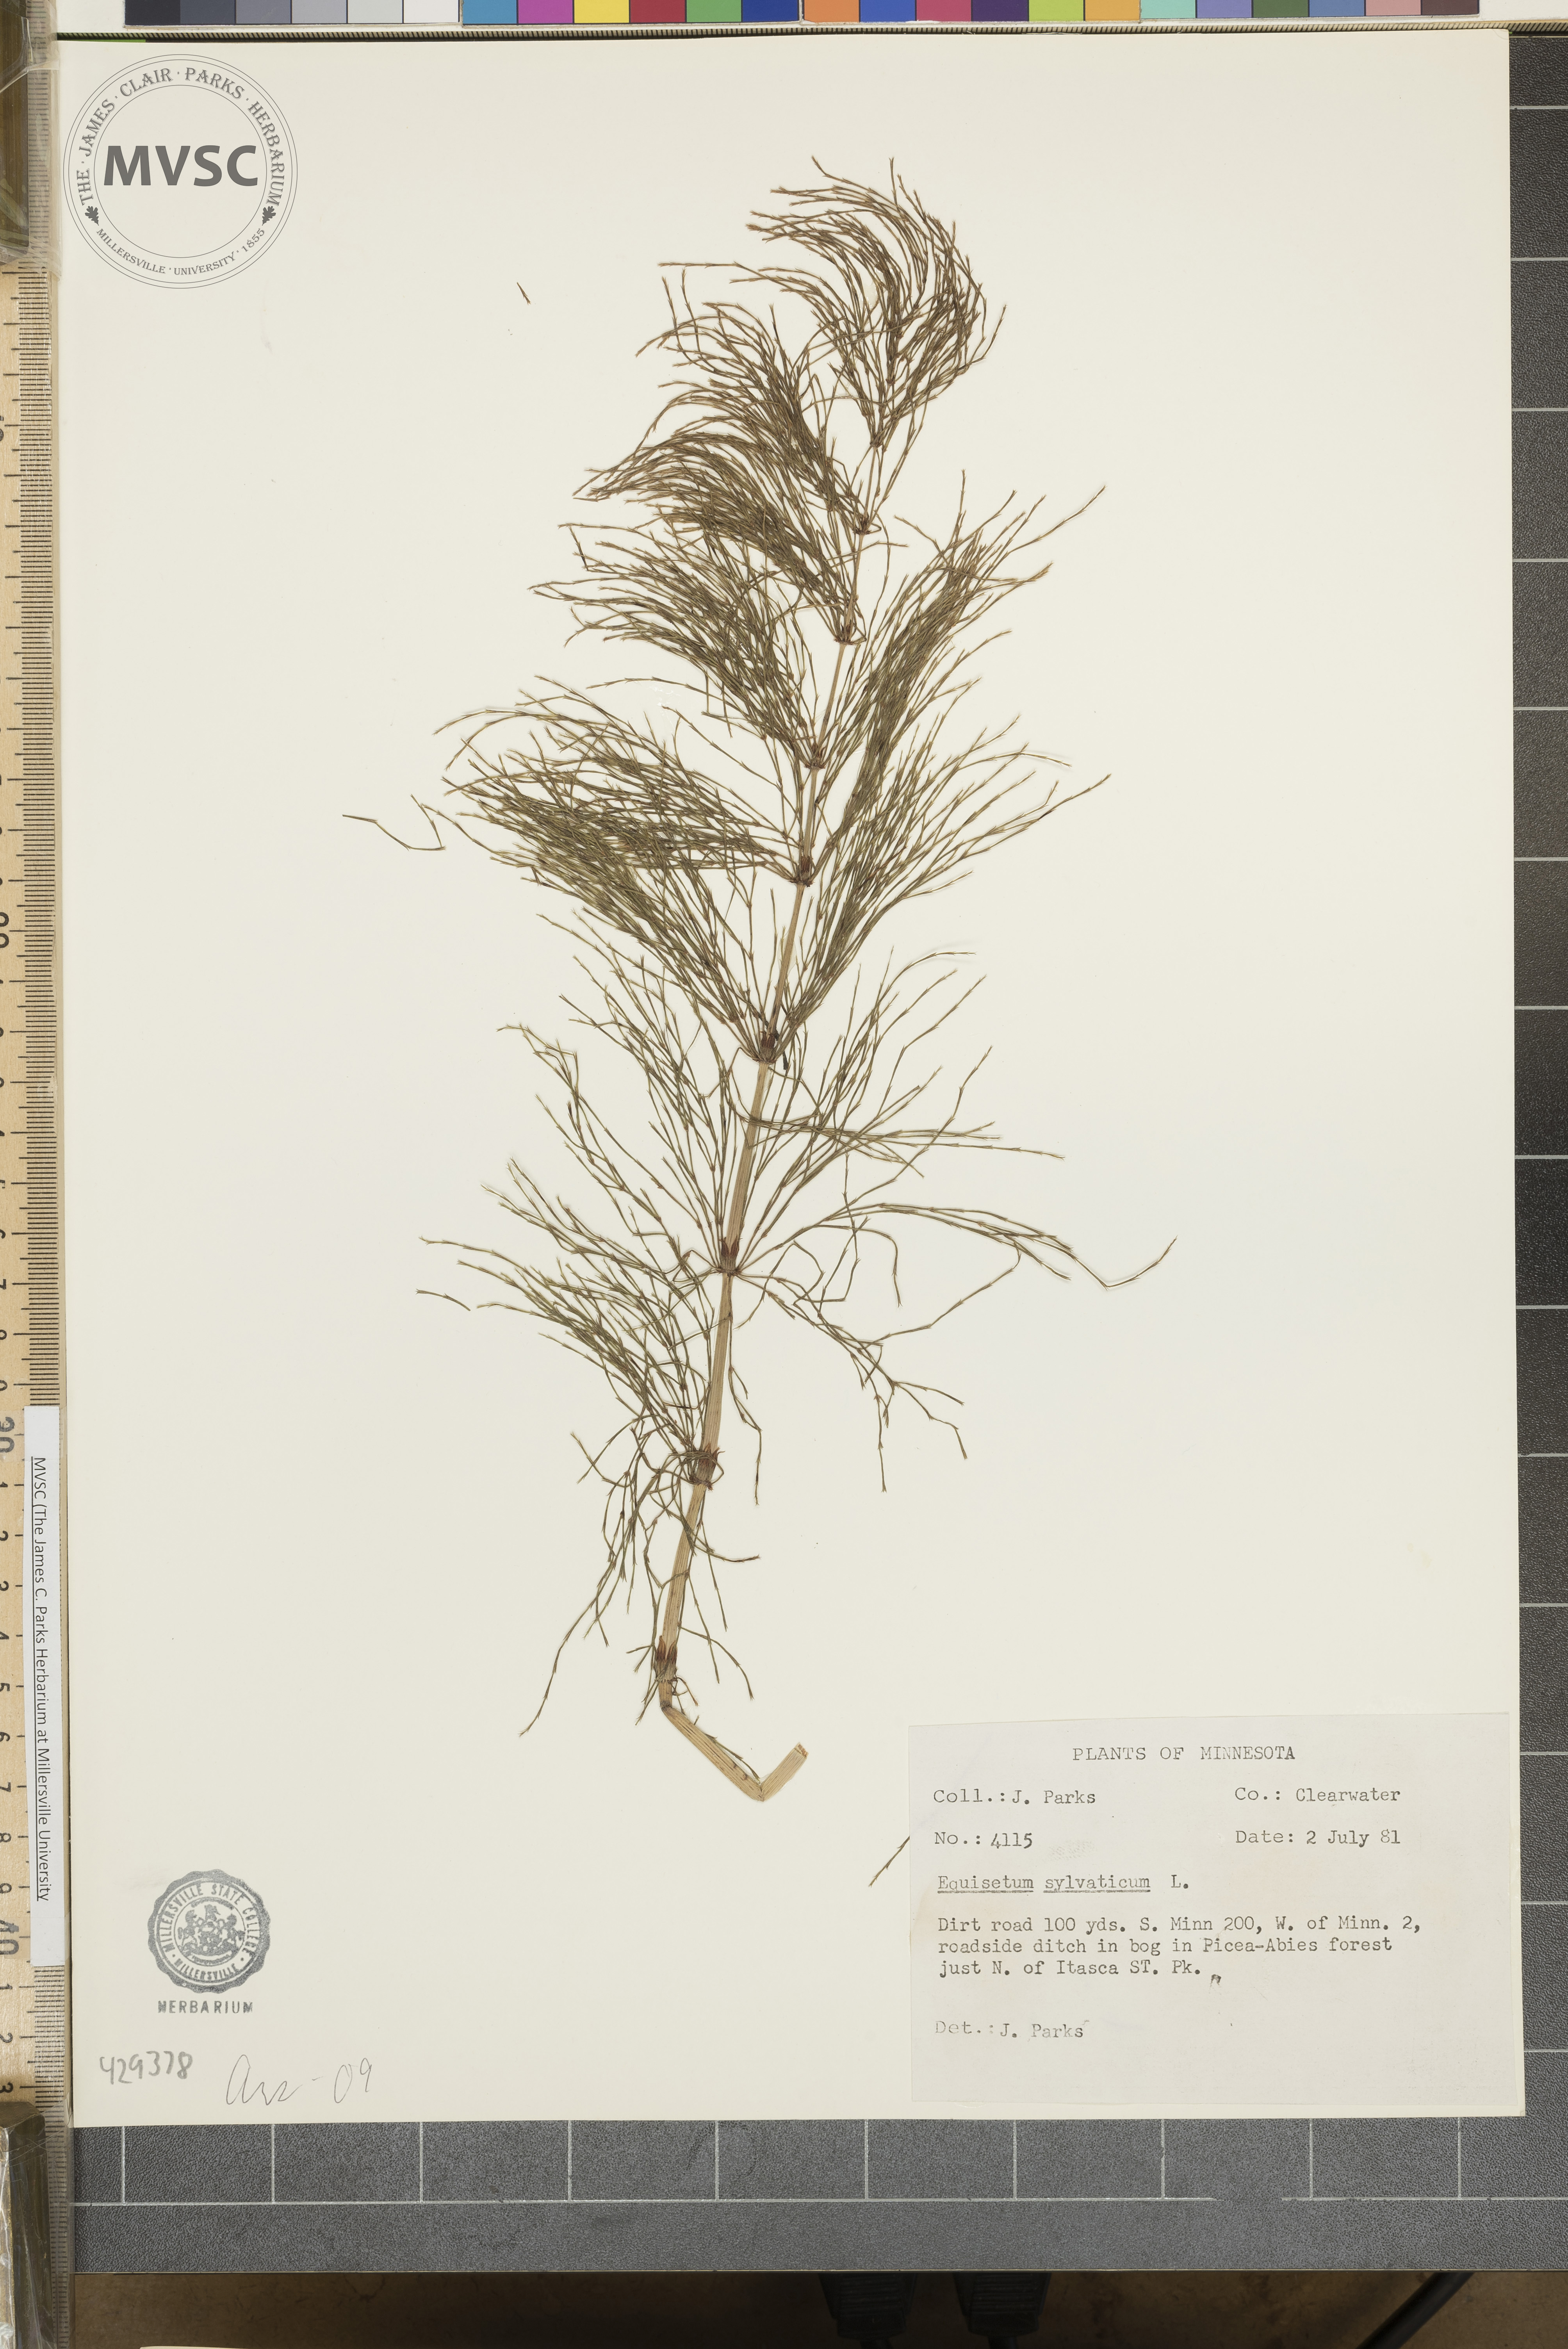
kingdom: Plantae
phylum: Tracheophyta
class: Polypodiopsida
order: Equisetales
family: Equisetaceae
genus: Equisetum
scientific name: Equisetum sylvaticum
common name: Wood horsetail
